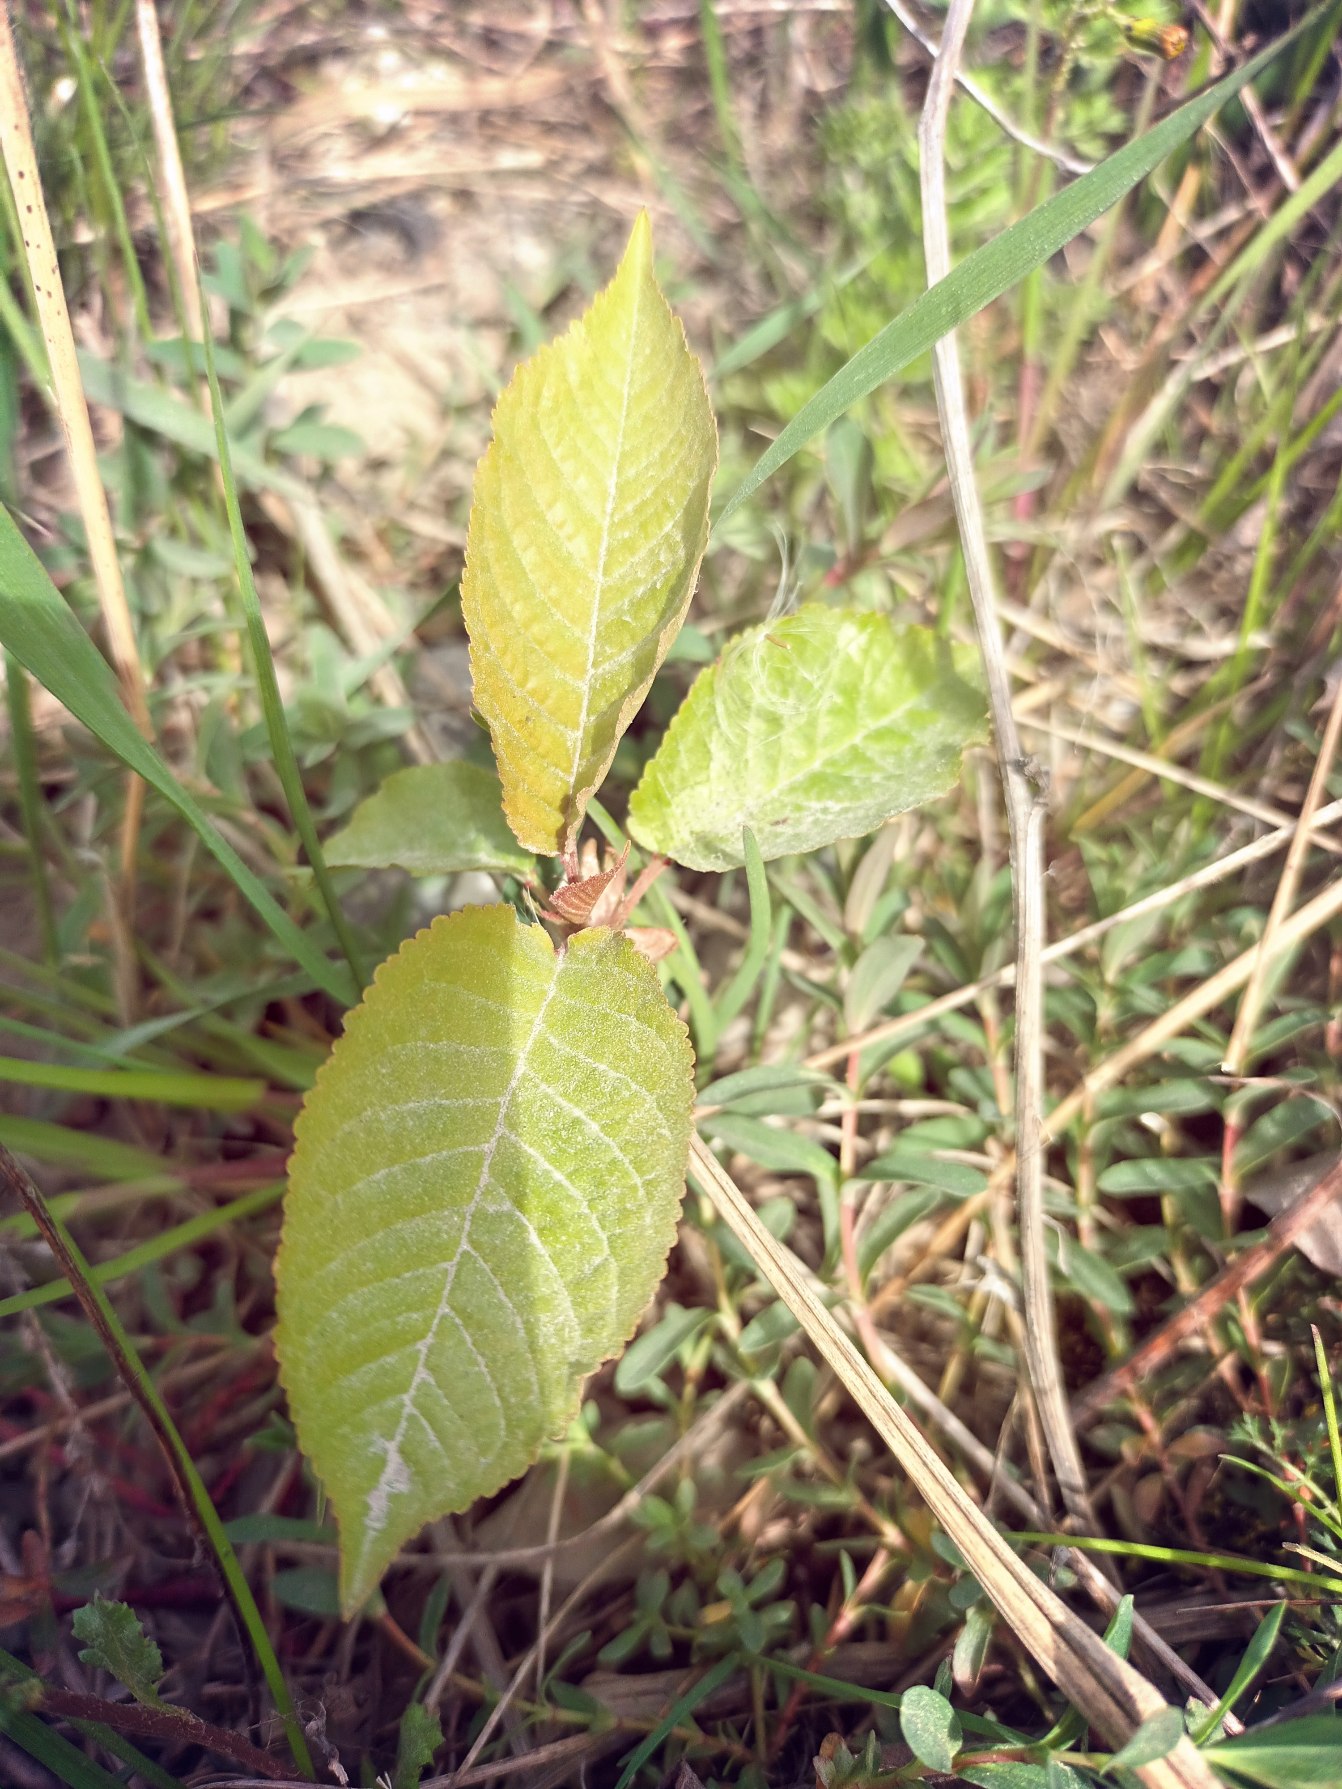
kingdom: Plantae
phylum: Tracheophyta
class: Magnoliopsida
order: Rosales
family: Rosaceae
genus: Prunus
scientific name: Prunus avium
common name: Fugle-kirsebær
